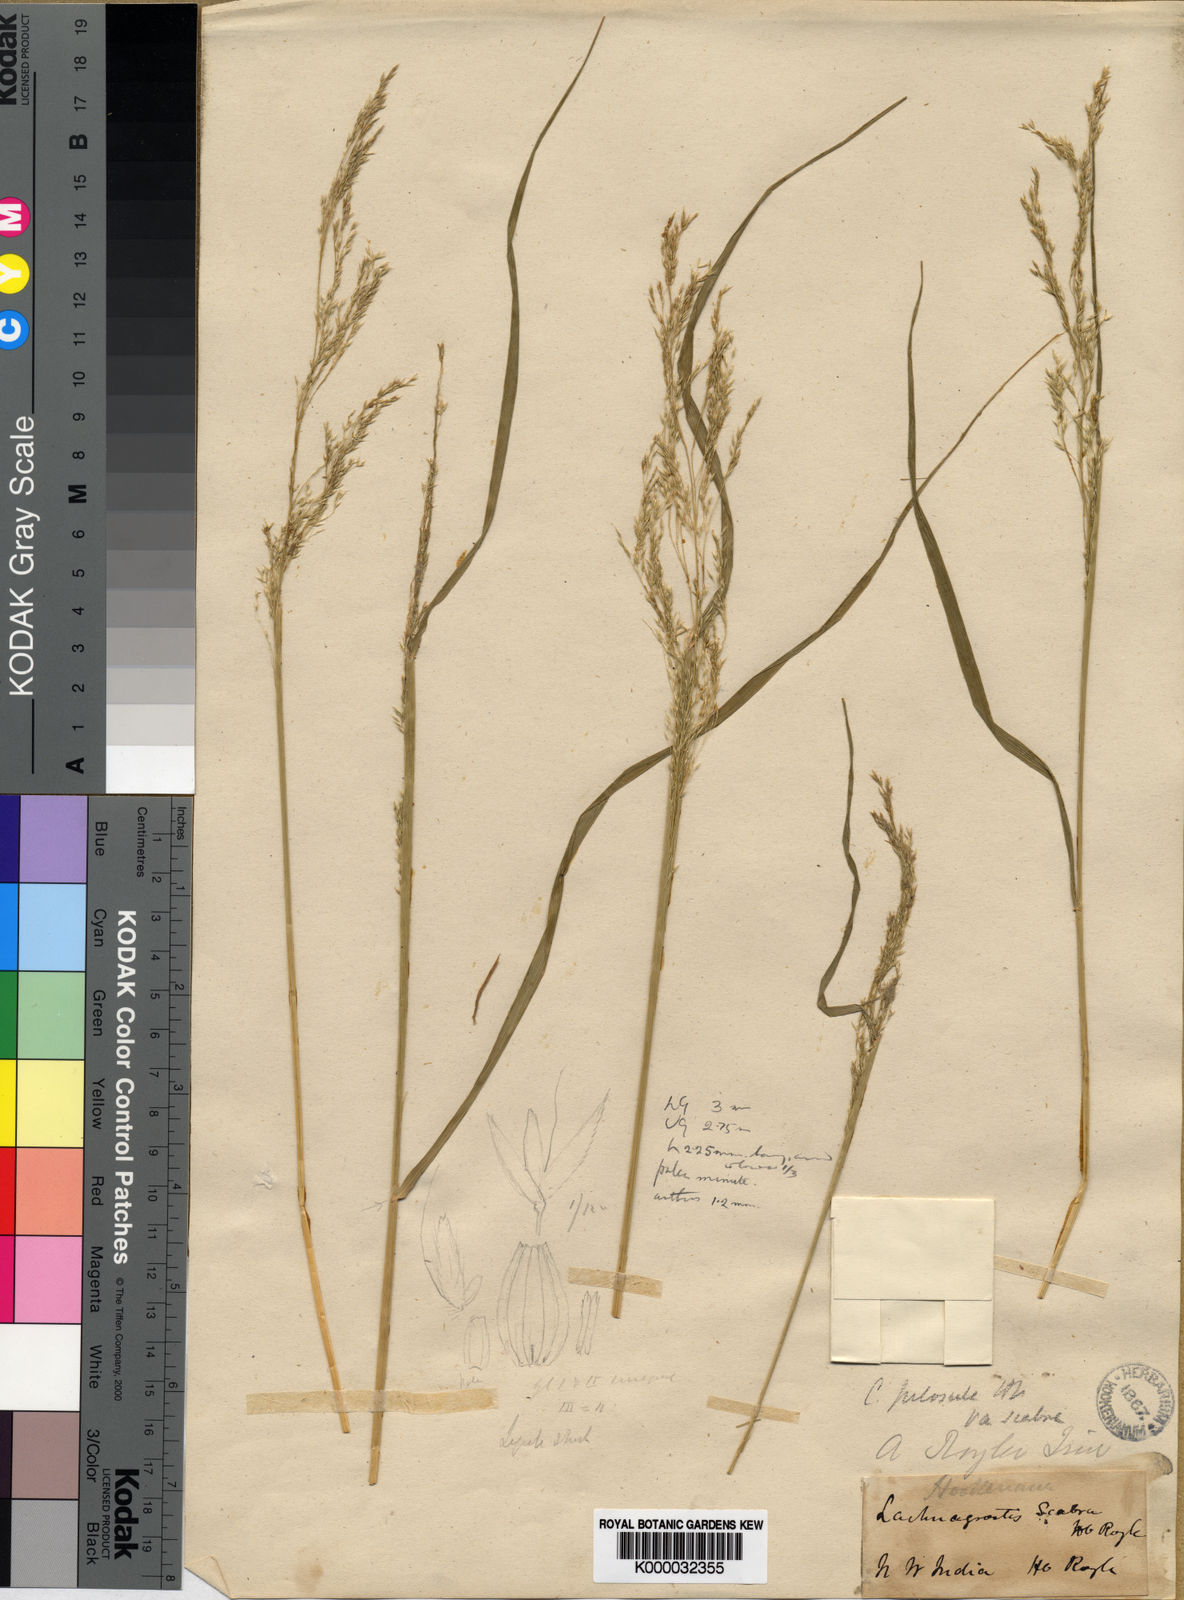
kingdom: Plantae
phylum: Tracheophyta
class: Liliopsida
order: Poales
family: Poaceae
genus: Agrostis
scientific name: Agrostis pilosula
